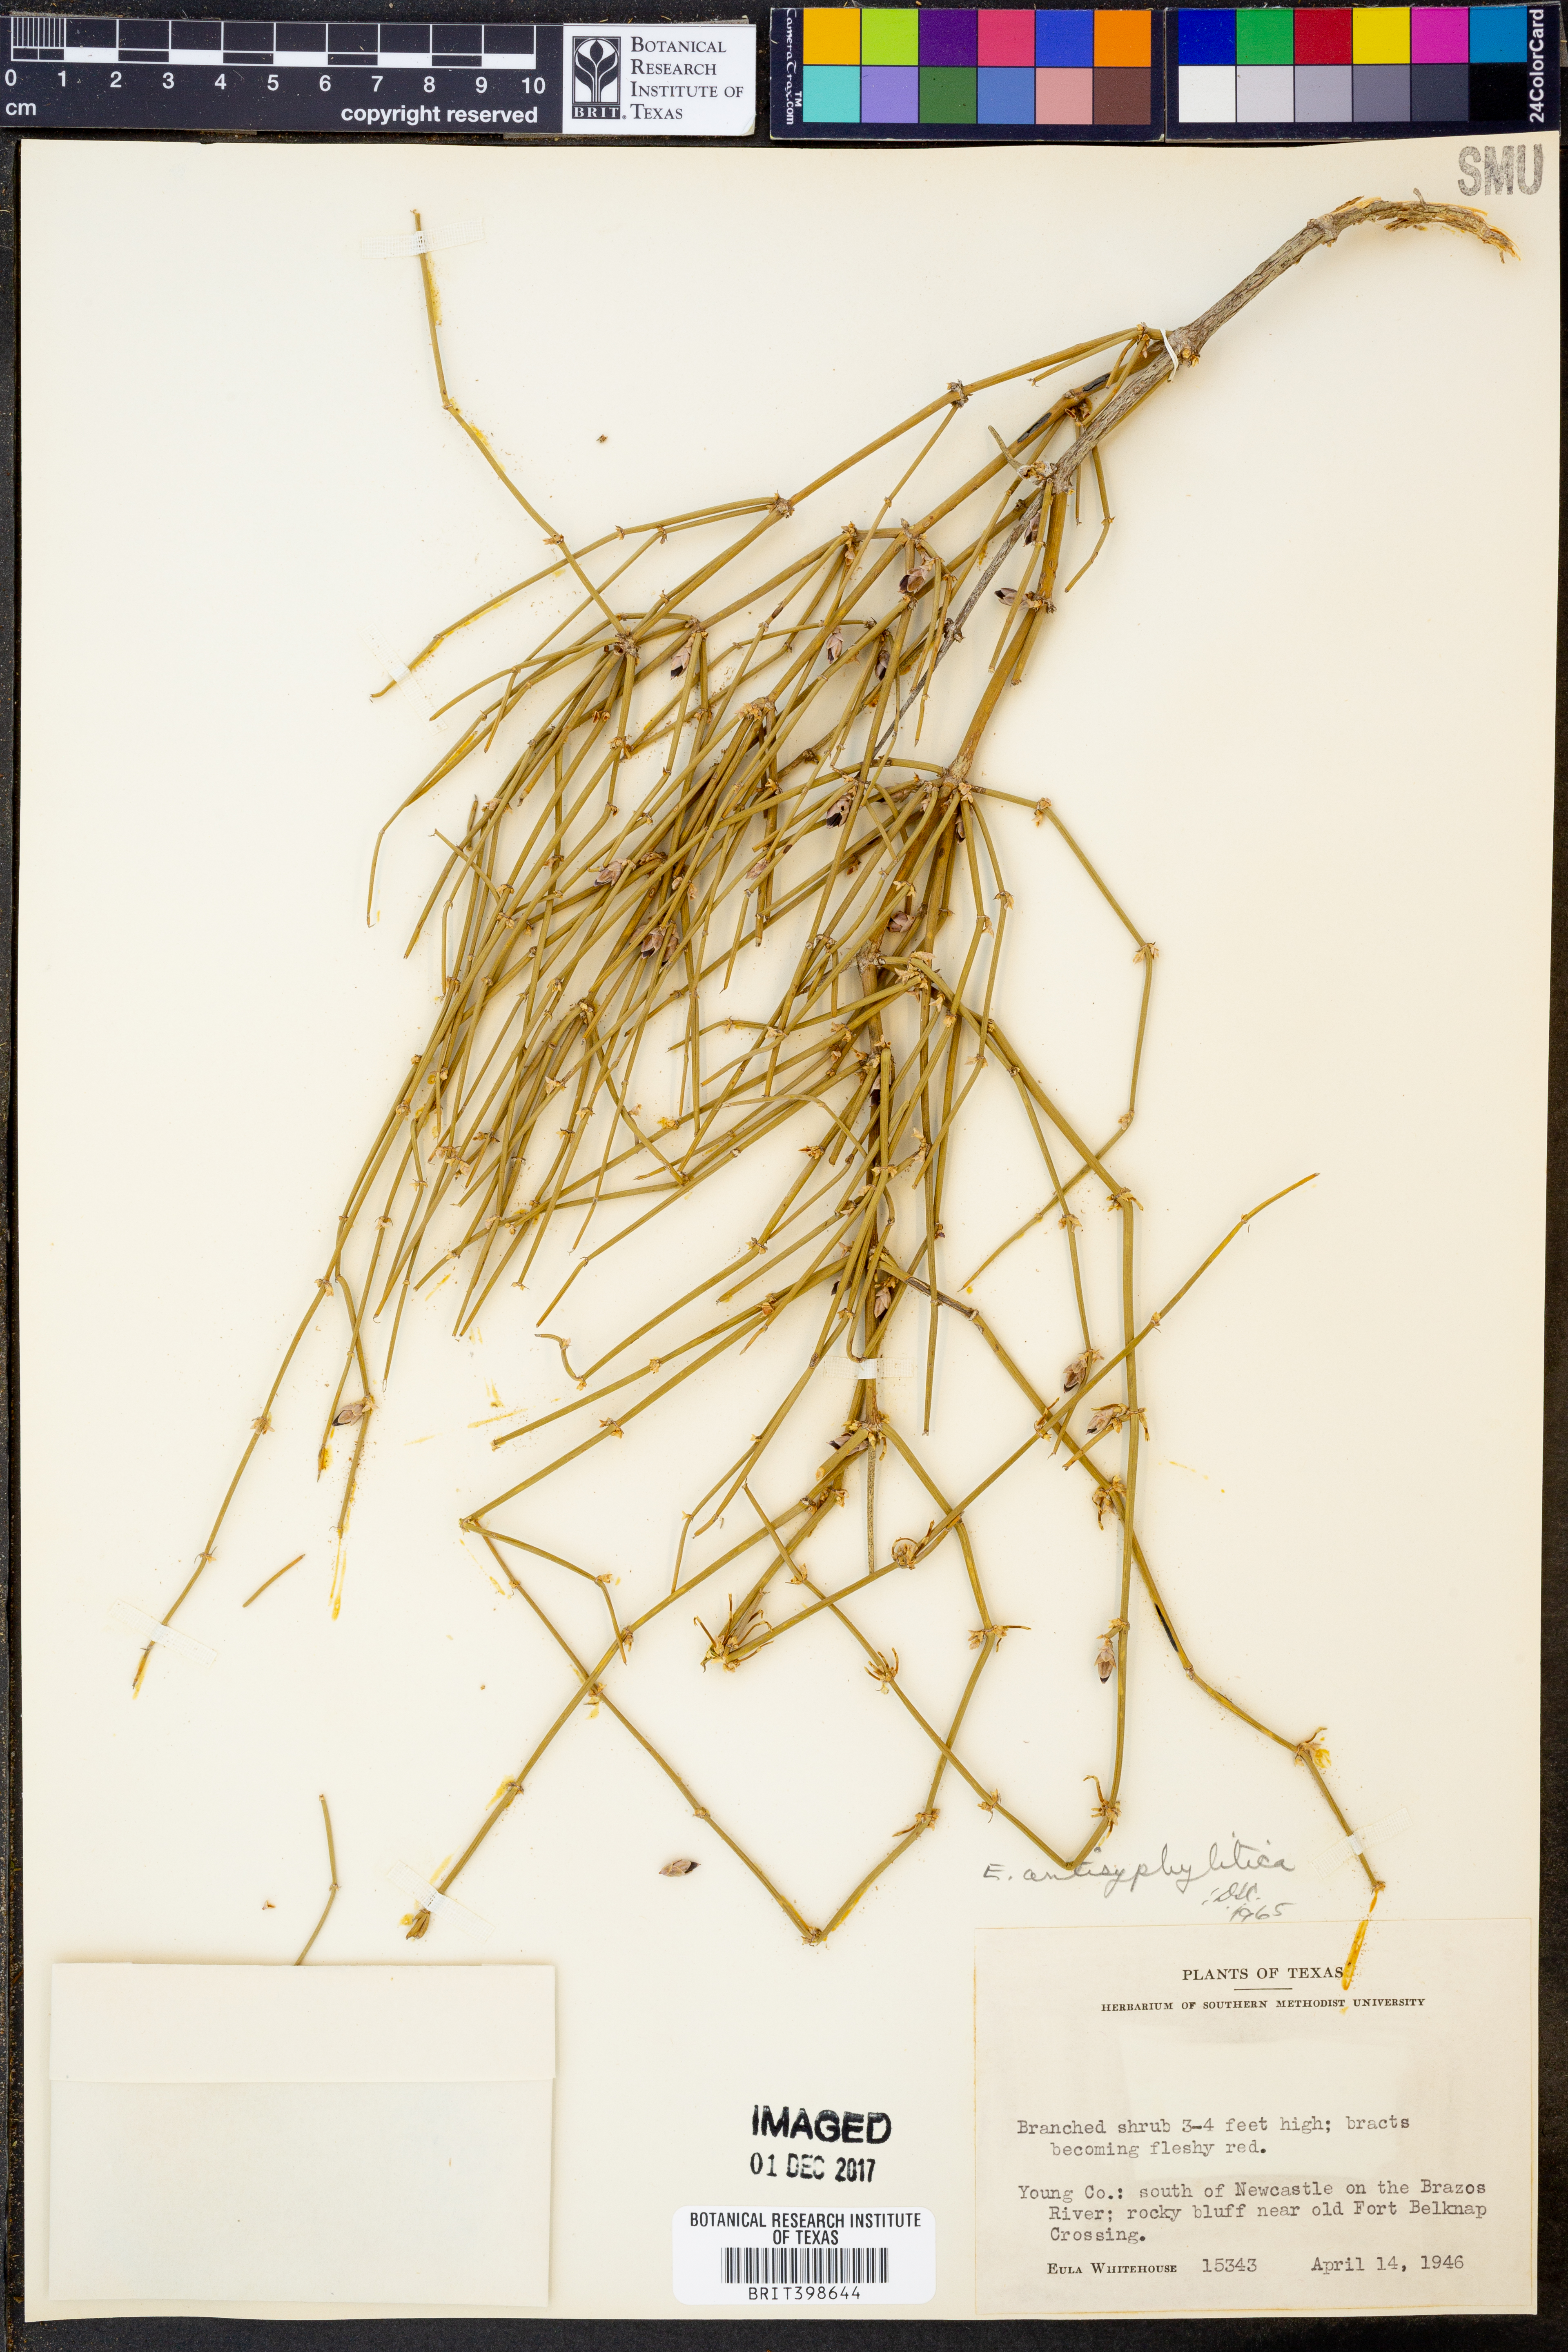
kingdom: Plantae
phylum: Tracheophyta
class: Gnetopsida
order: Ephedrales
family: Ephedraceae
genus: Ephedra
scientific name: Ephedra antisyphilitica
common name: Clipweed
